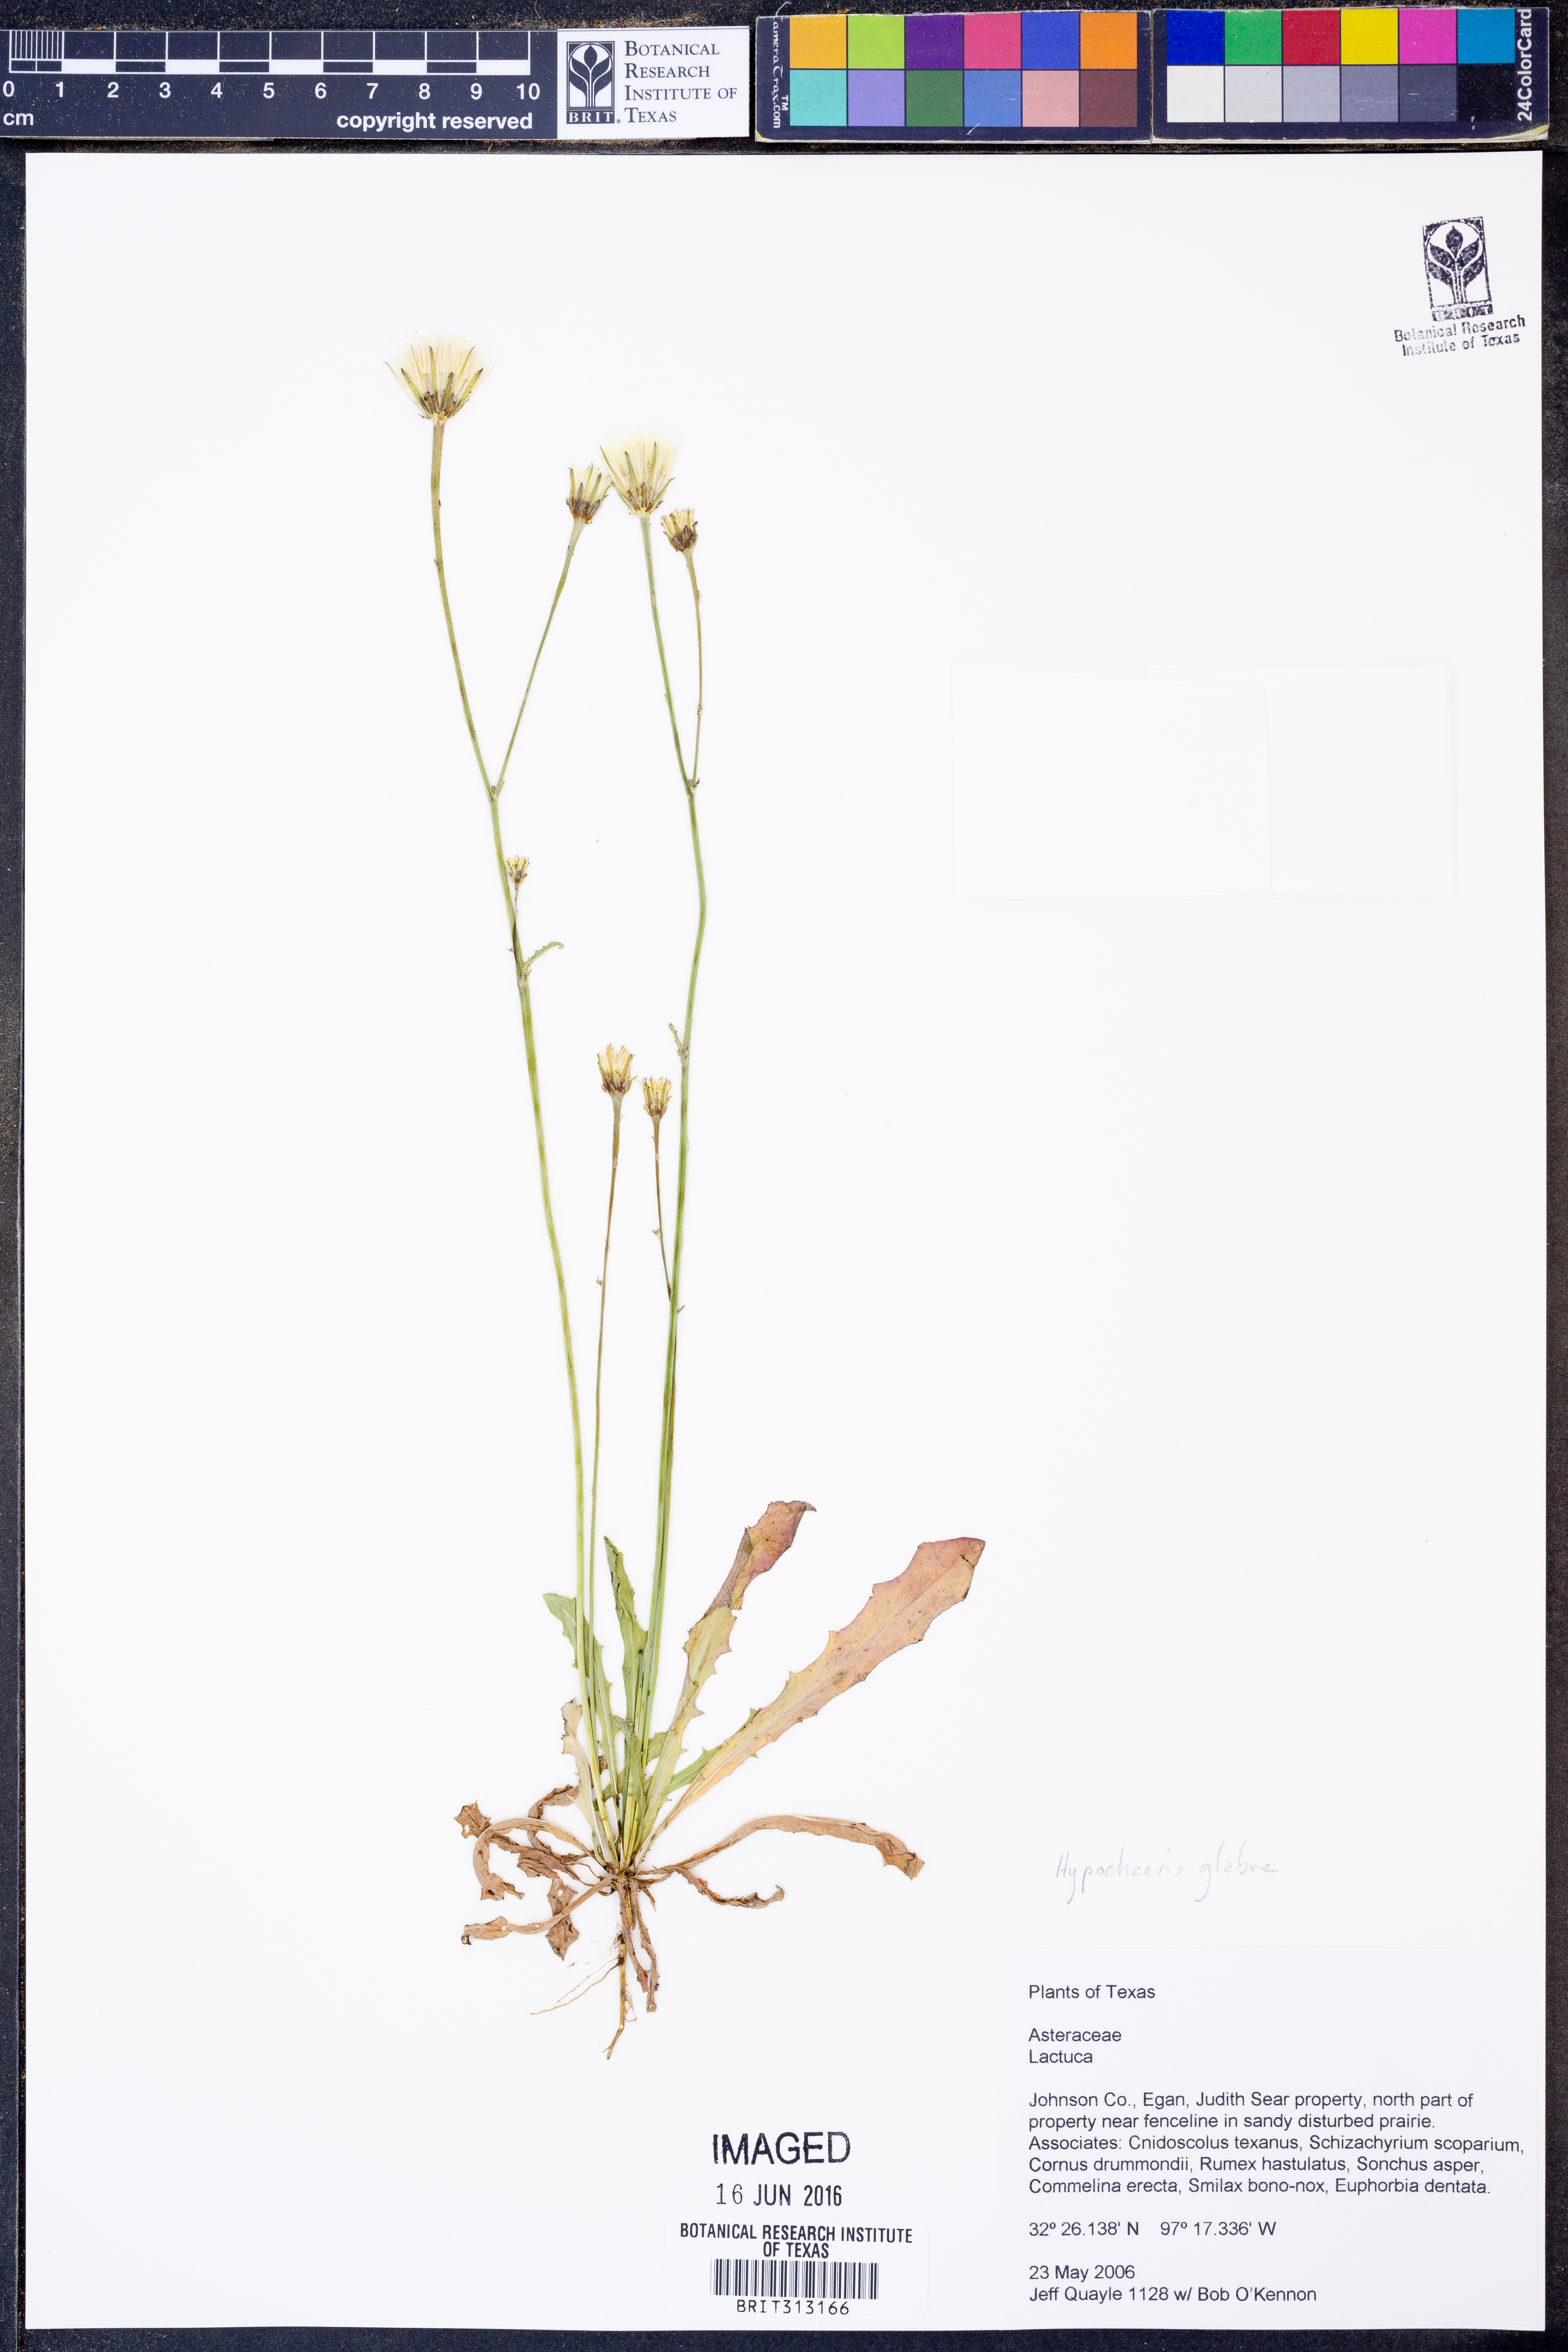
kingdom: Plantae
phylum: Tracheophyta
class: Magnoliopsida
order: Asterales
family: Asteraceae
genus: Hypochaeris
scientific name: Hypochaeris glabra
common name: Smooth catsear
